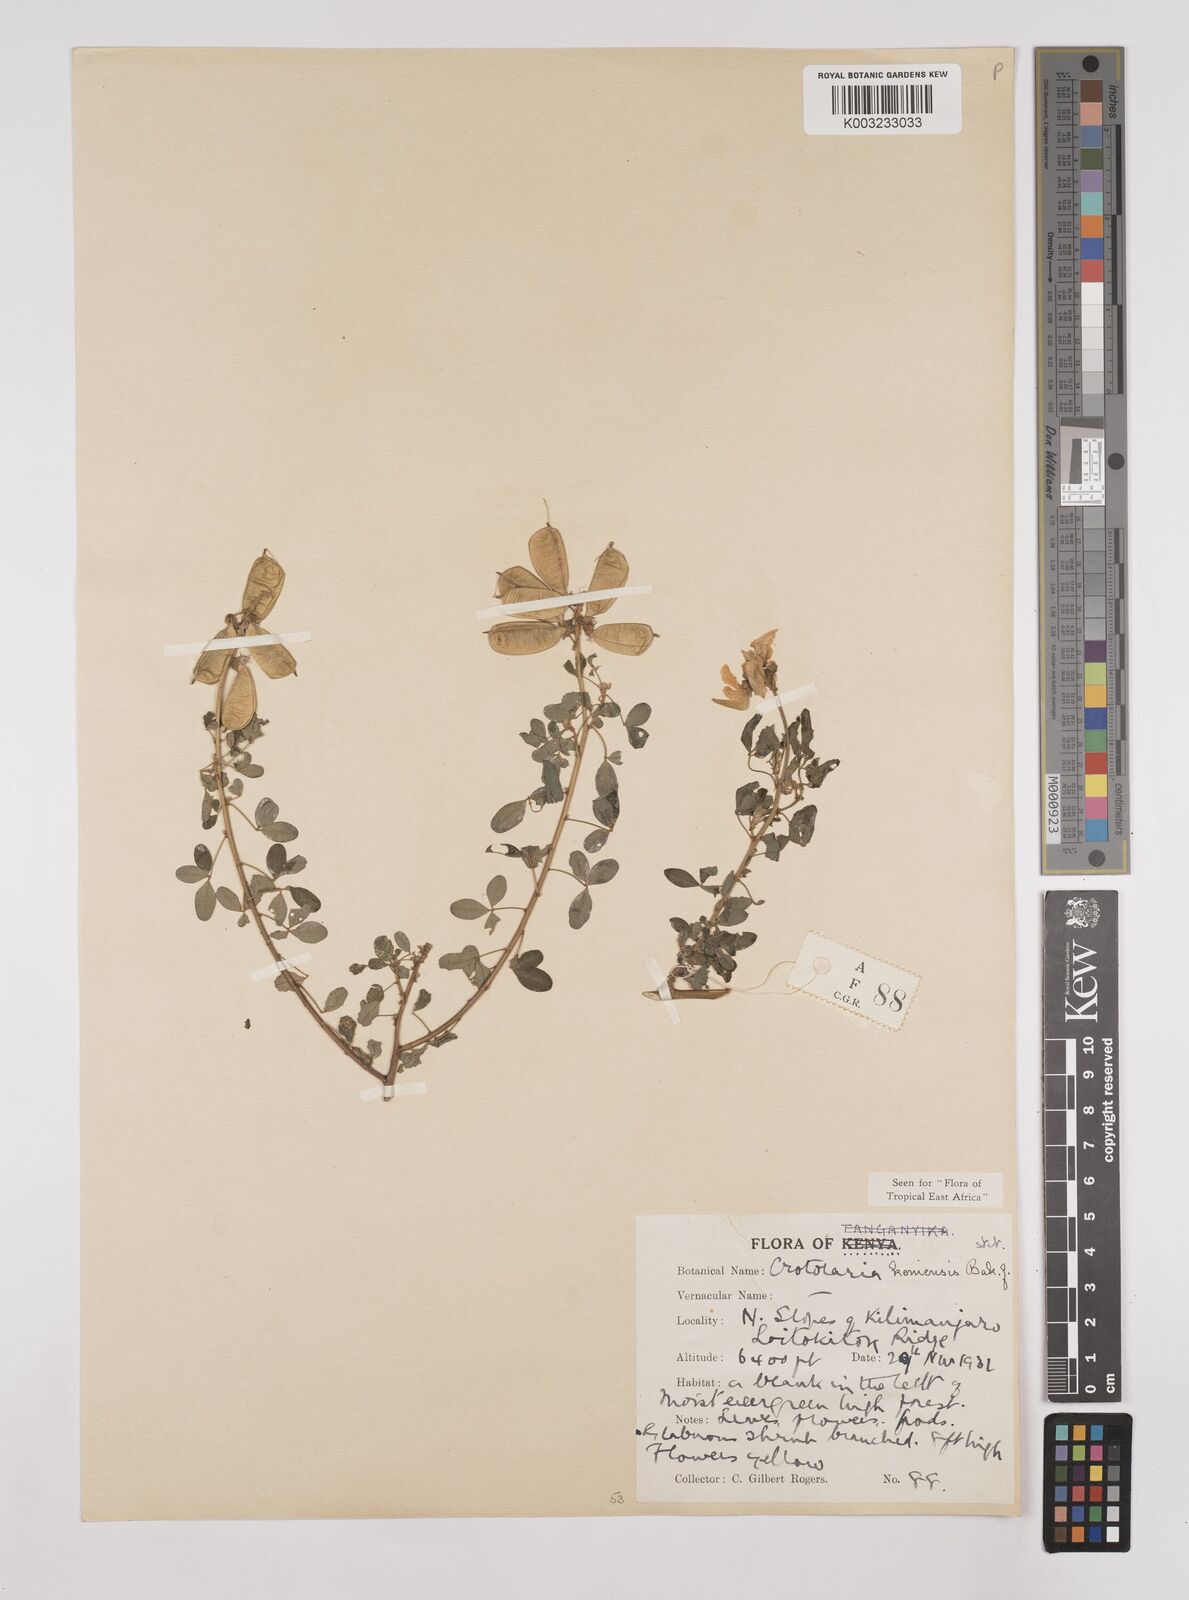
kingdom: Plantae
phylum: Tracheophyta
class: Magnoliopsida
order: Fabales
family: Fabaceae
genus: Crotalaria
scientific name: Crotalaria keniensis
